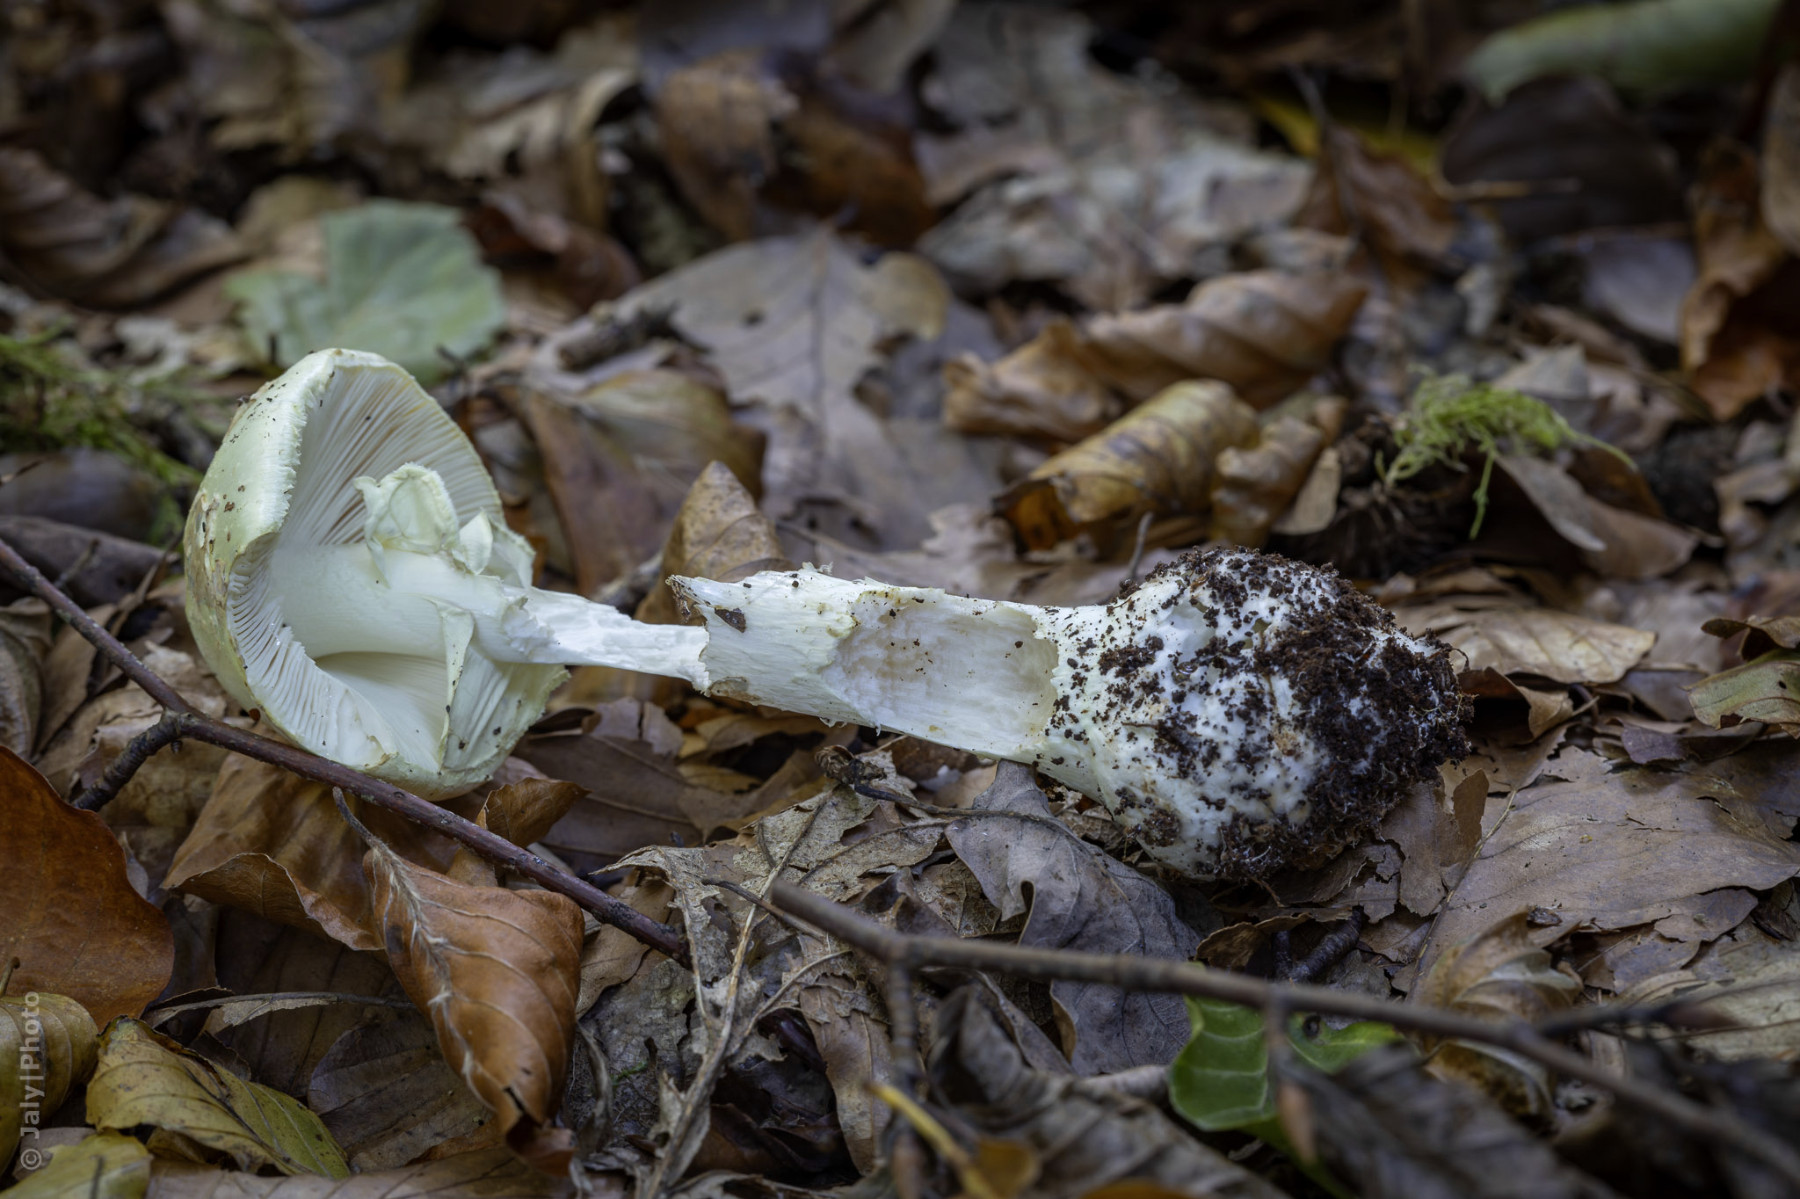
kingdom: Fungi
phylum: Basidiomycota
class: Agaricomycetes
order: Agaricales
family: Amanitaceae
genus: Amanita
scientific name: Amanita citrina
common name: kugleknoldet fluesvamp
